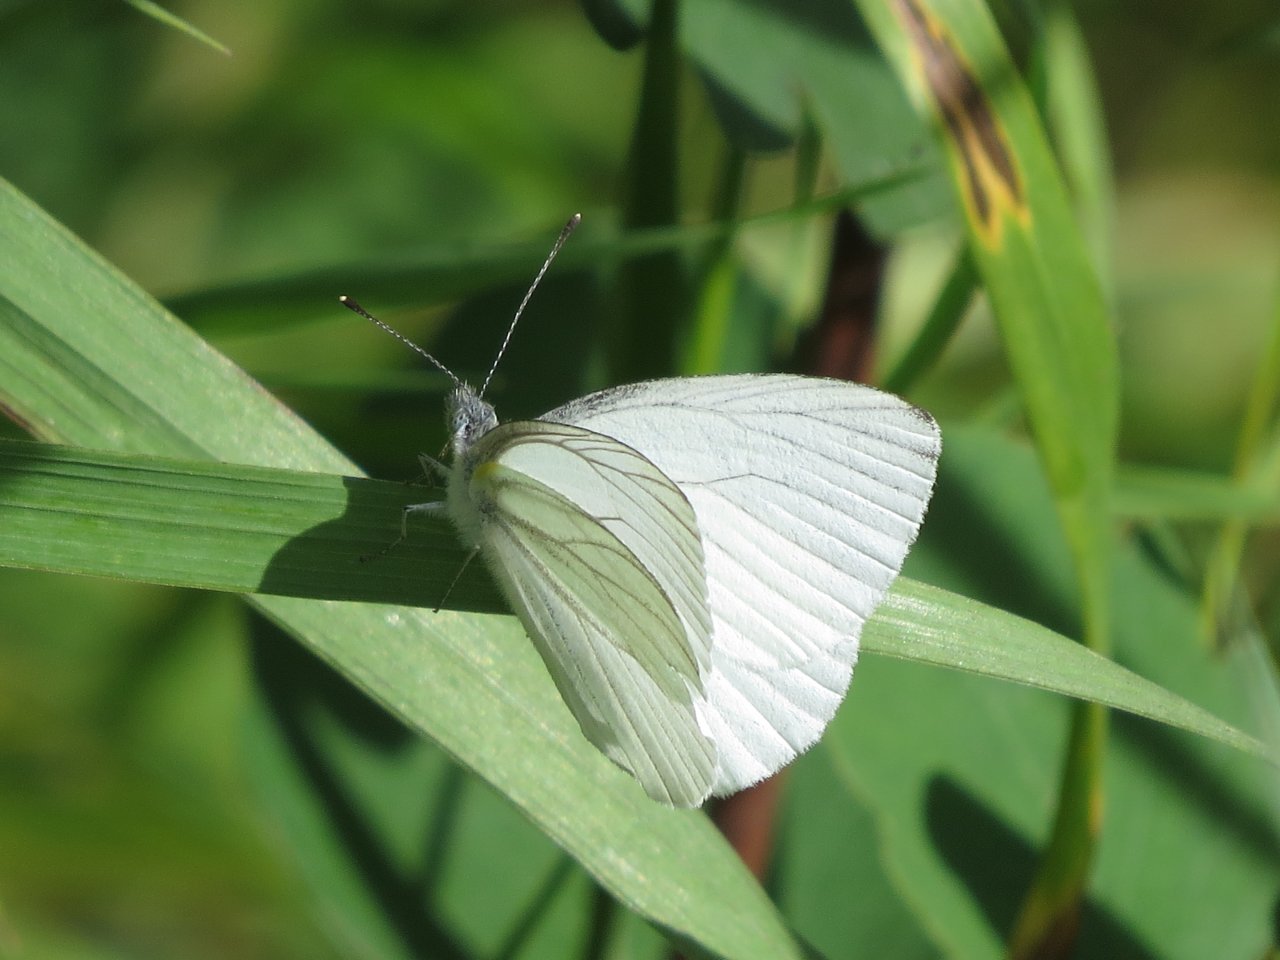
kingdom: Animalia
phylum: Arthropoda
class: Insecta
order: Lepidoptera
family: Pieridae
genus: Pieris
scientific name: Pieris oleracea
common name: Mustard White
